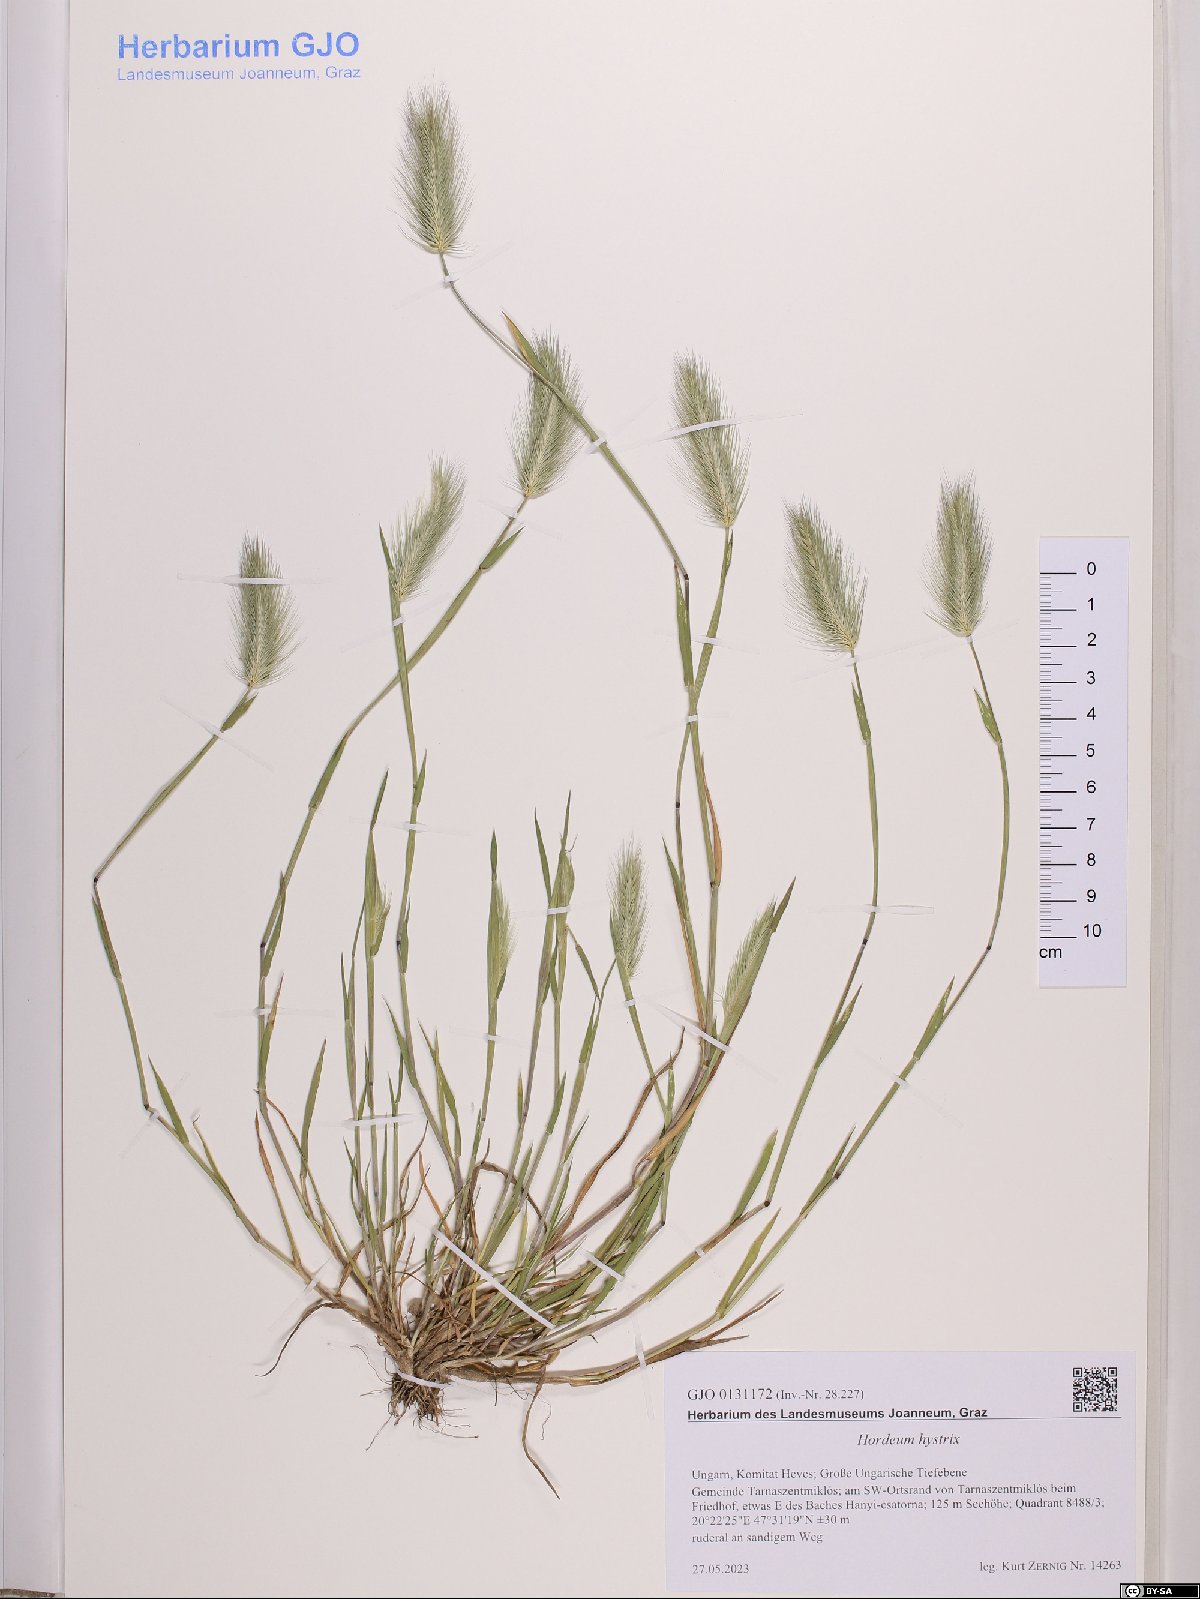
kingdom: Plantae
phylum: Tracheophyta
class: Liliopsida
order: Poales
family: Poaceae
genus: Hordeum
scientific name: Hordeum marinum
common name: Sea barley
